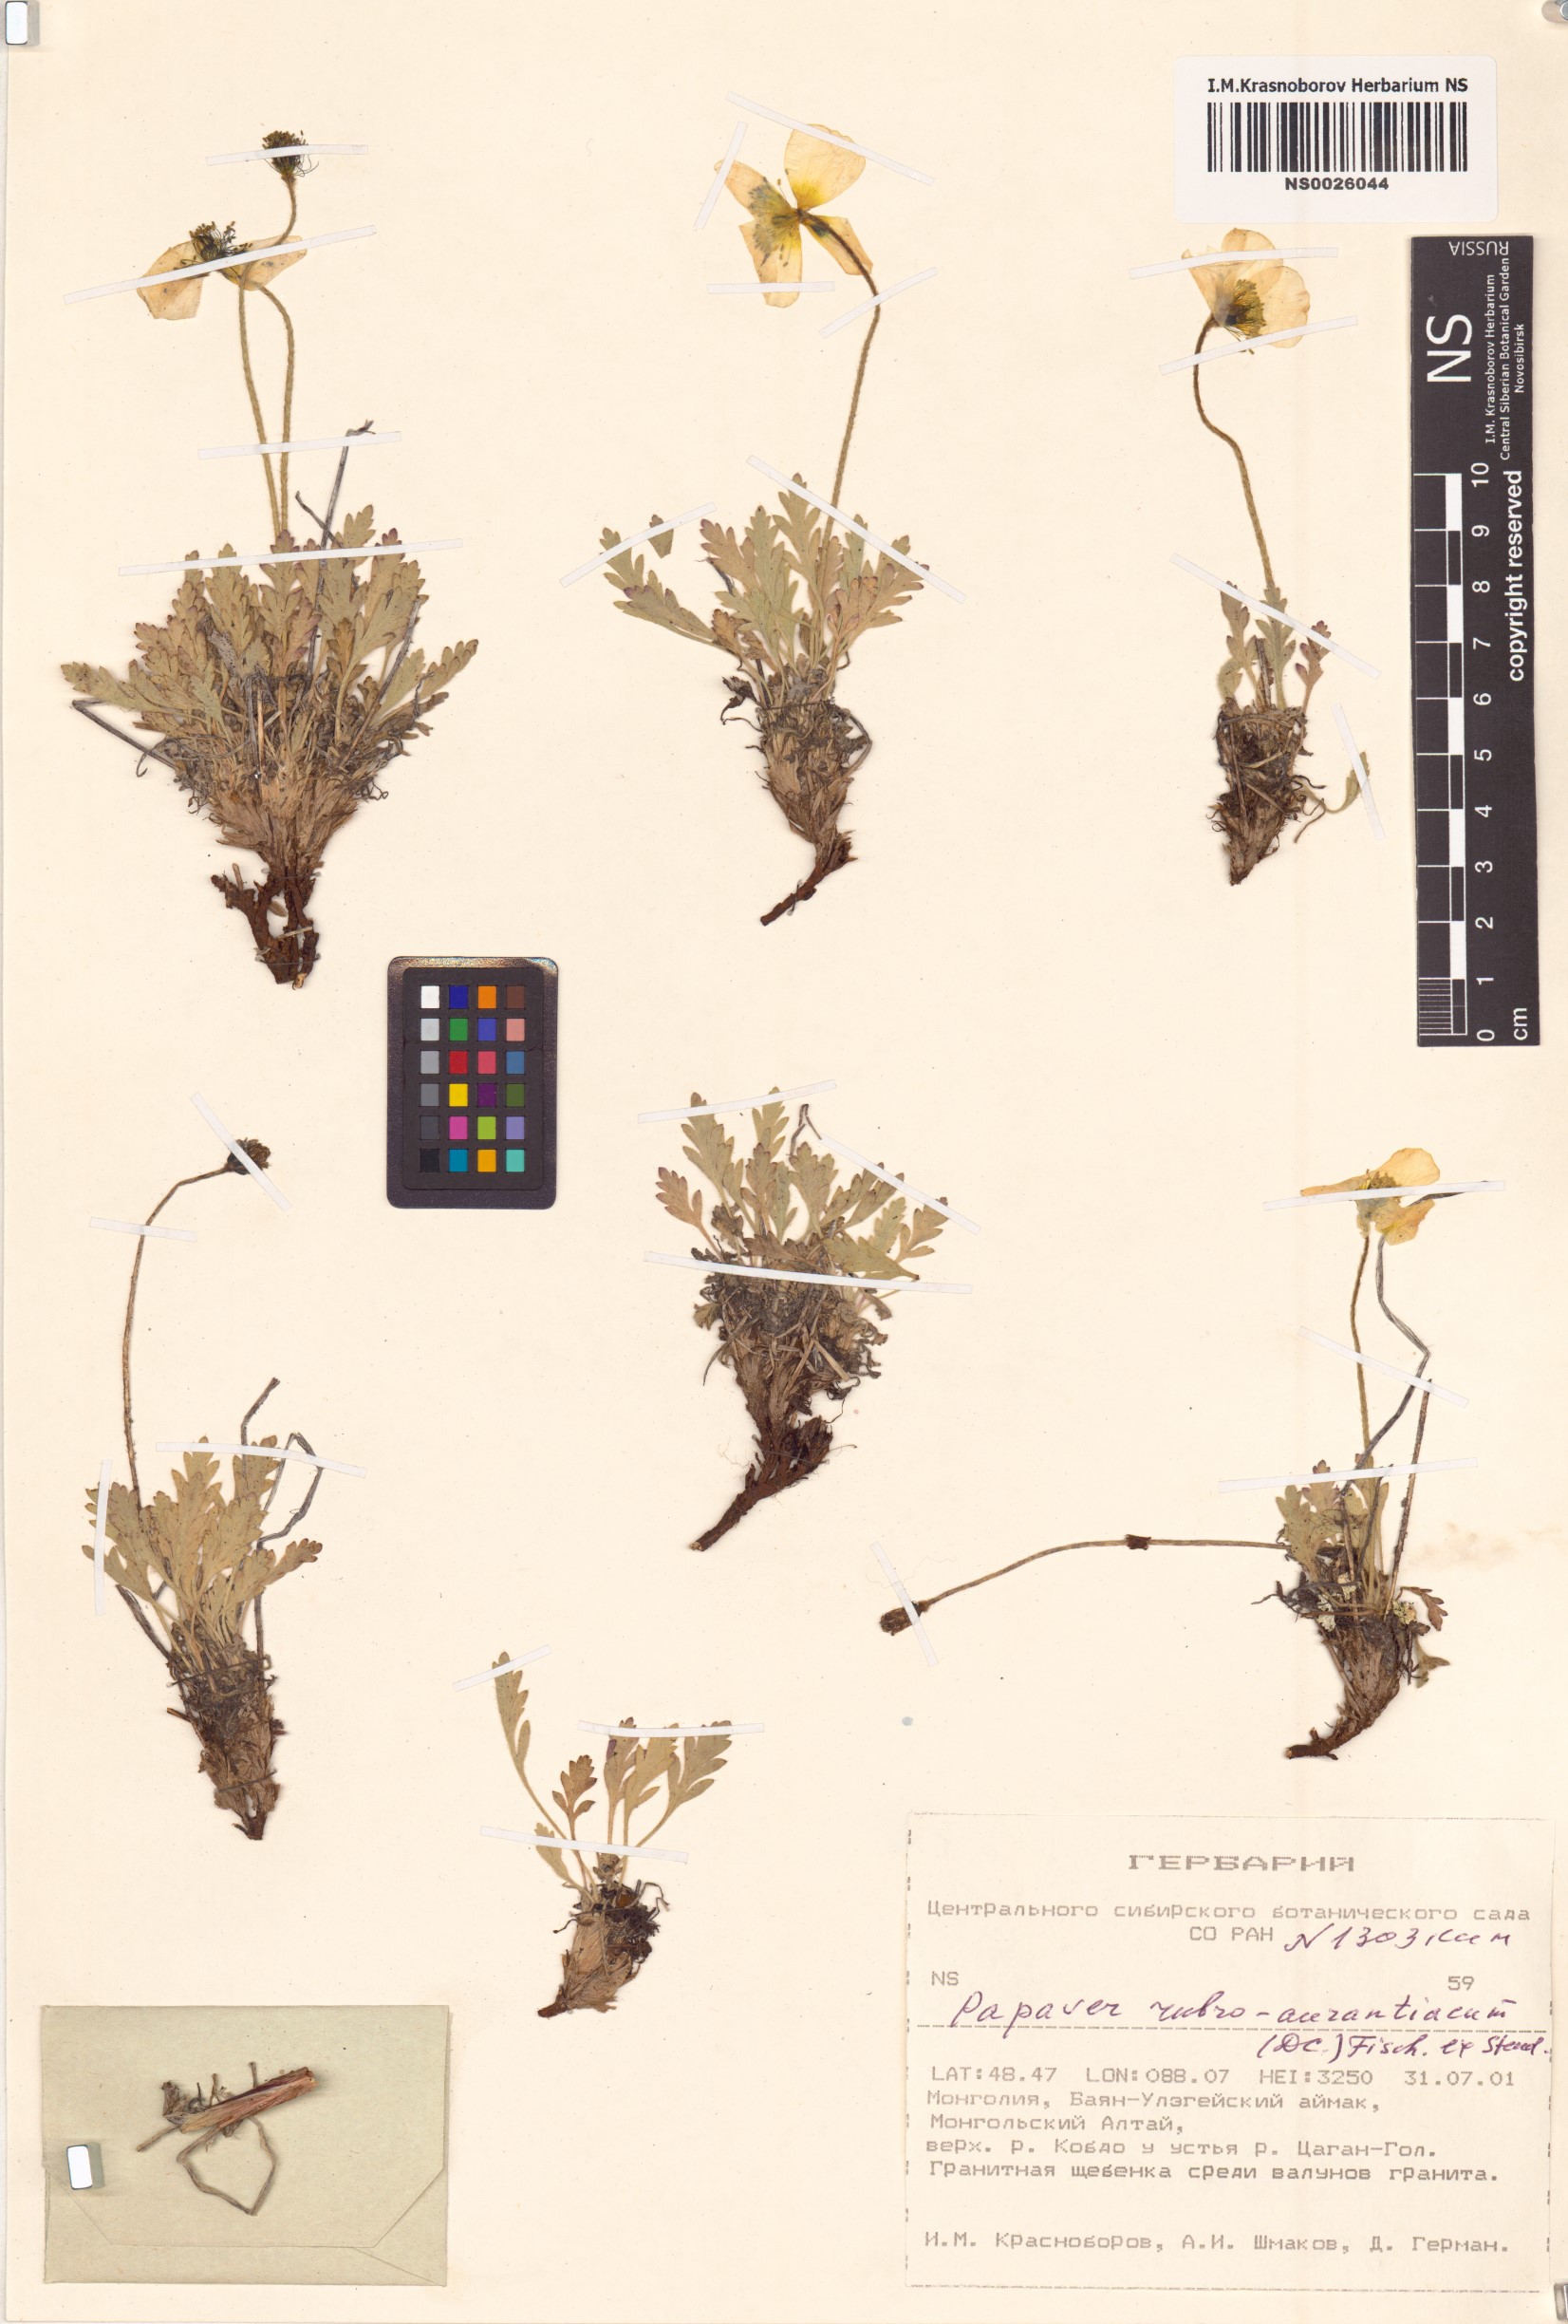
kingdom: Plantae
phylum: Tracheophyta
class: Magnoliopsida
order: Ranunculales
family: Papaveraceae
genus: Papaver
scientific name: Papaver rubroaurantiacum
